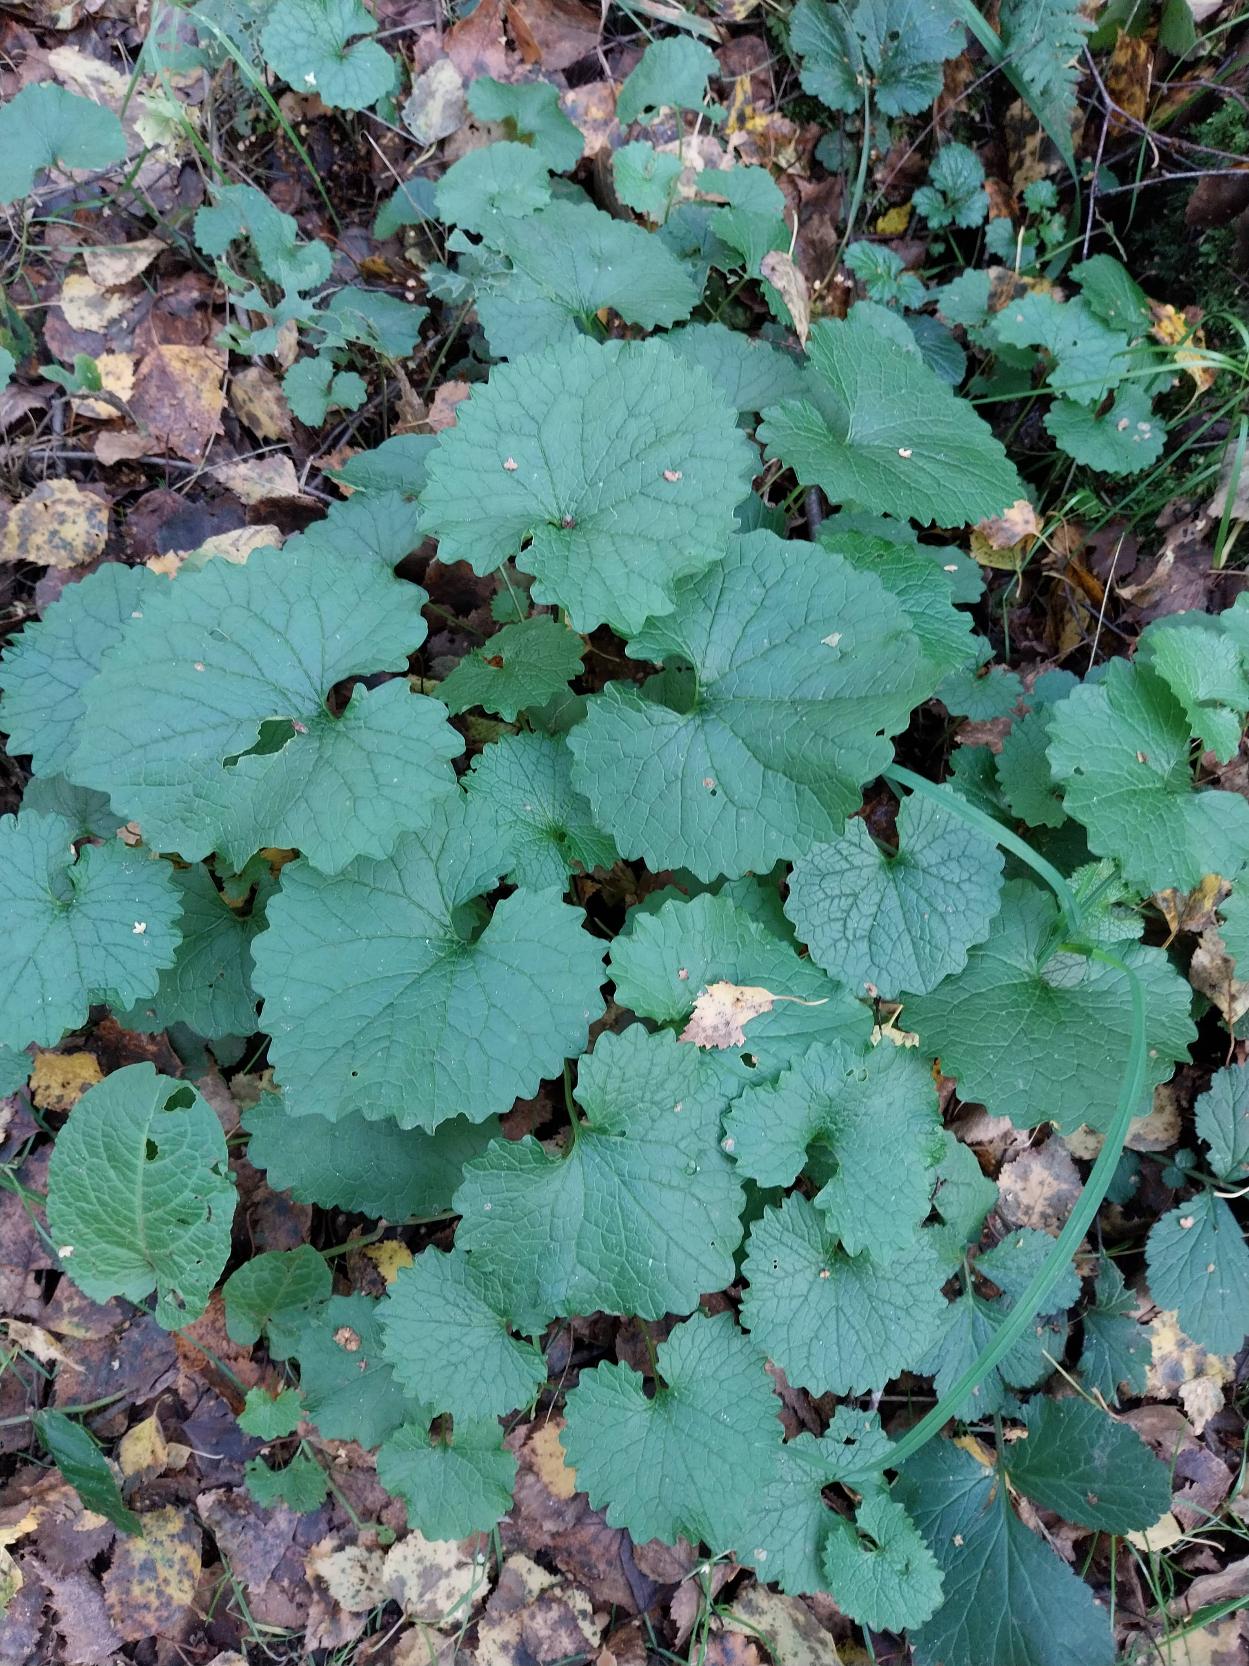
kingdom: Plantae
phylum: Tracheophyta
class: Magnoliopsida
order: Brassicales
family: Brassicaceae
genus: Alliaria
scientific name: Alliaria petiolata
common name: Løgkarse
